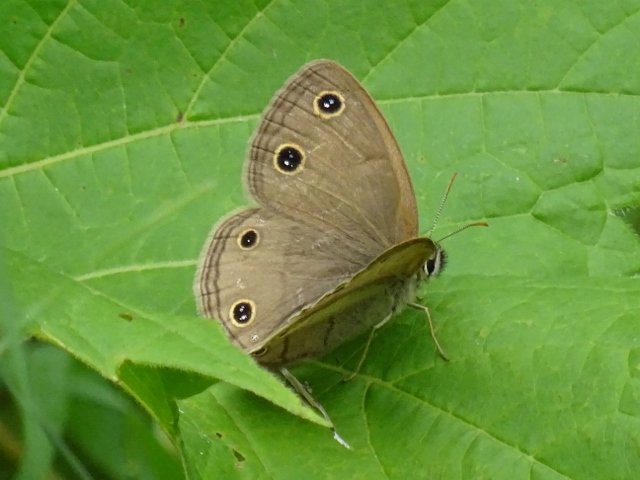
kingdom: Animalia
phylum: Arthropoda
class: Insecta
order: Lepidoptera
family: Nymphalidae
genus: Euptychia
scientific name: Euptychia cymela
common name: Little Wood Satyr
